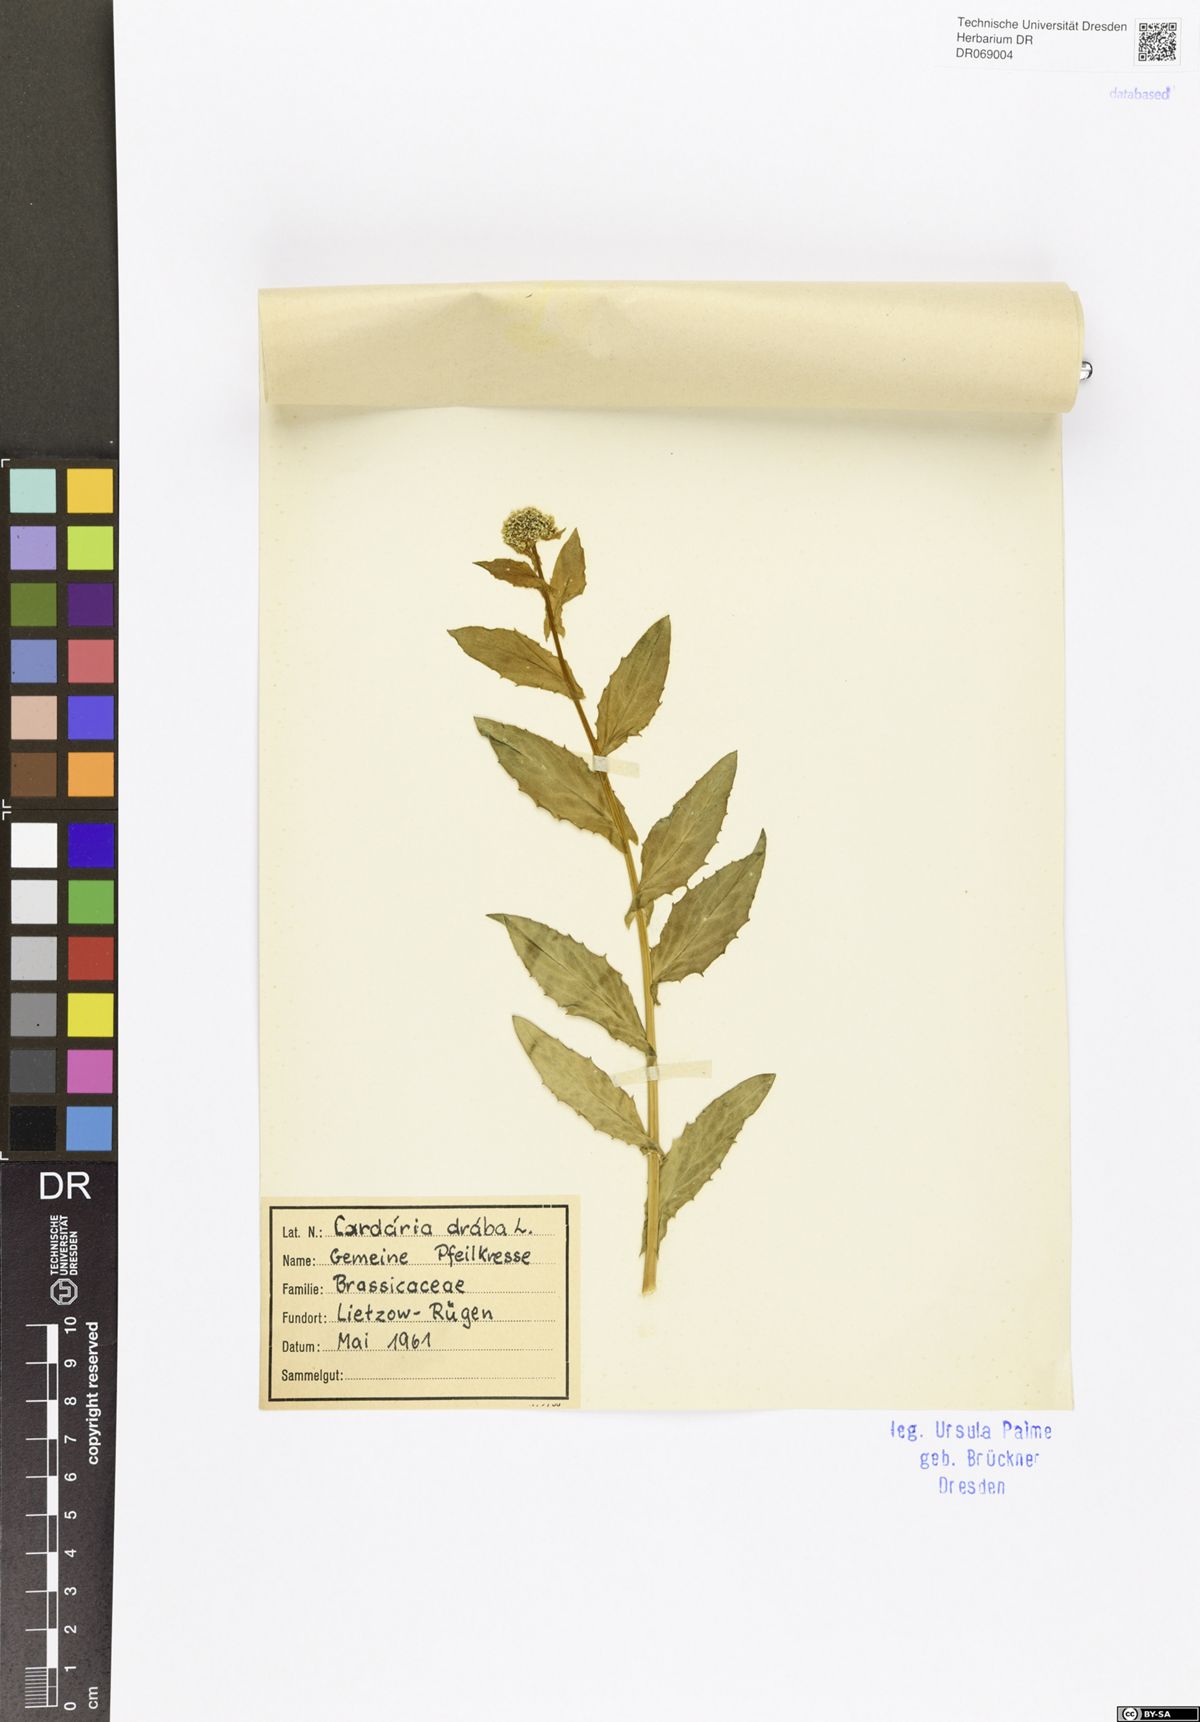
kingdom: Plantae
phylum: Tracheophyta
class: Magnoliopsida
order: Brassicales
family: Brassicaceae
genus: Lepidium
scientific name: Lepidium draba
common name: Hoary cress
